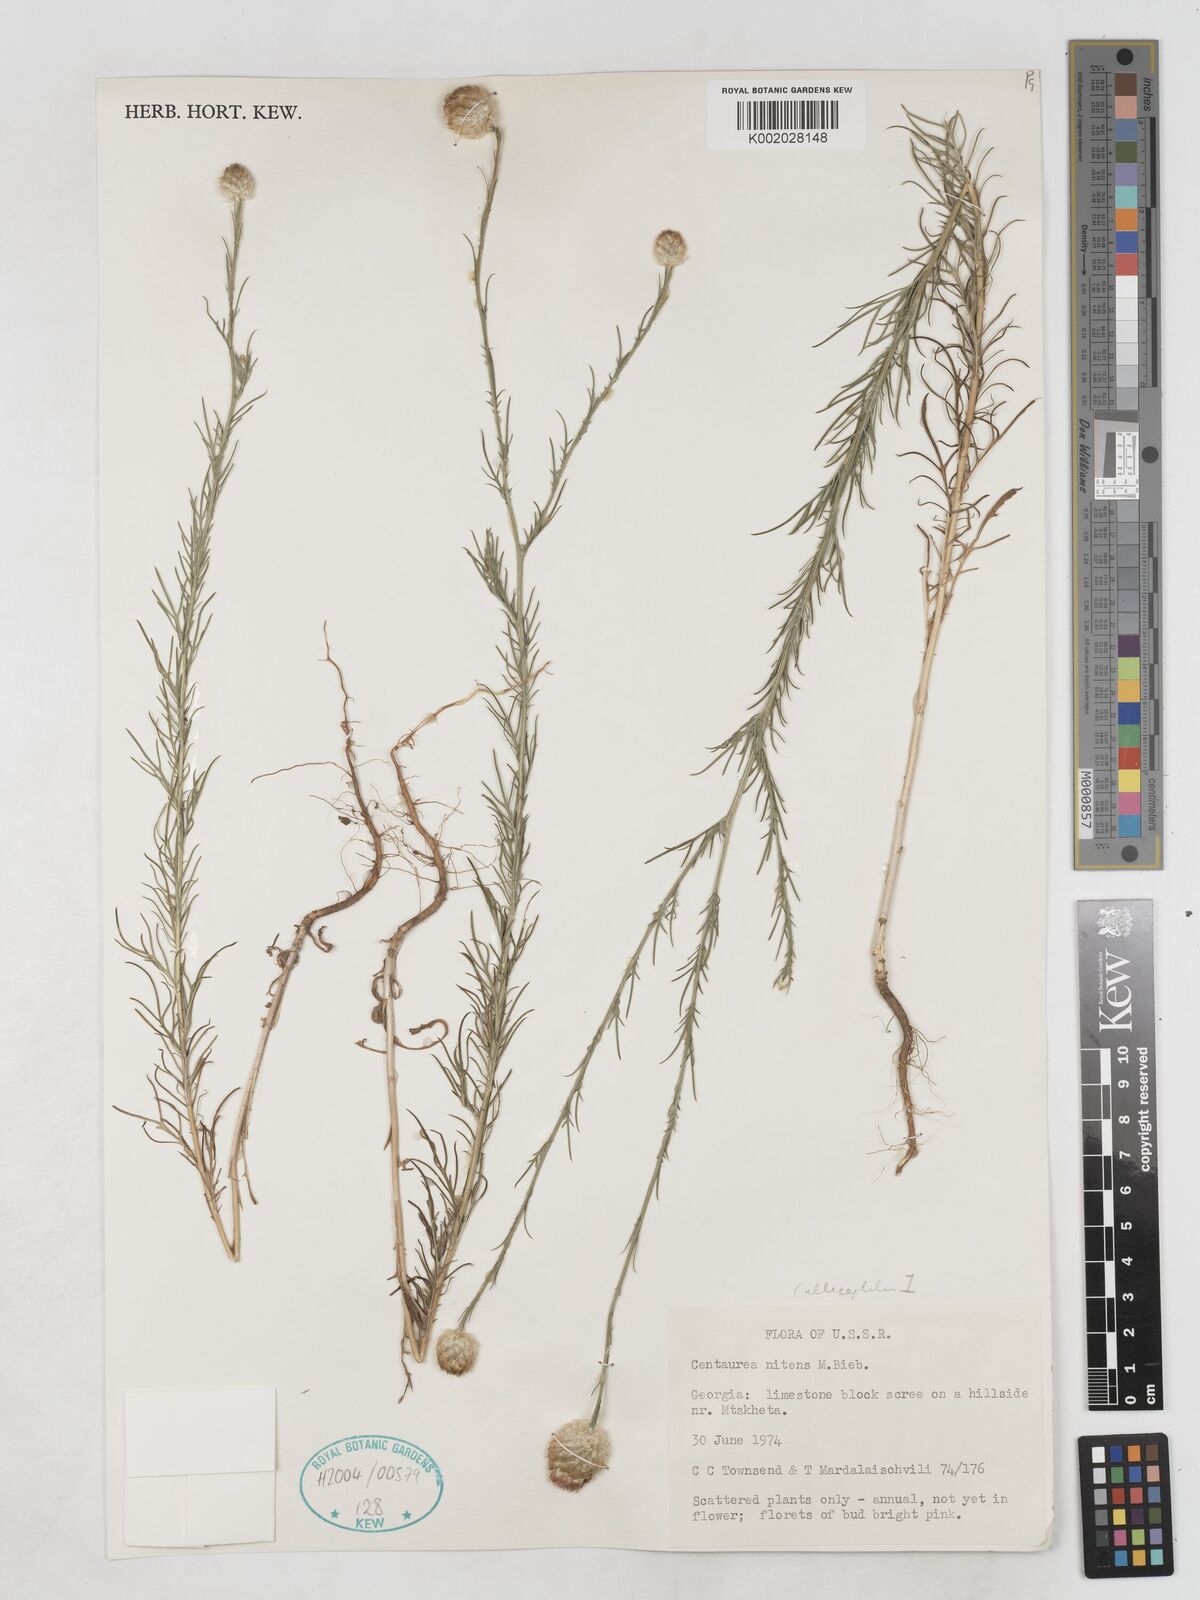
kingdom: Plantae
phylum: Tracheophyta
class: Magnoliopsida
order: Asterales
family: Asteraceae
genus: Callicephalus
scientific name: Callicephalus nitens
